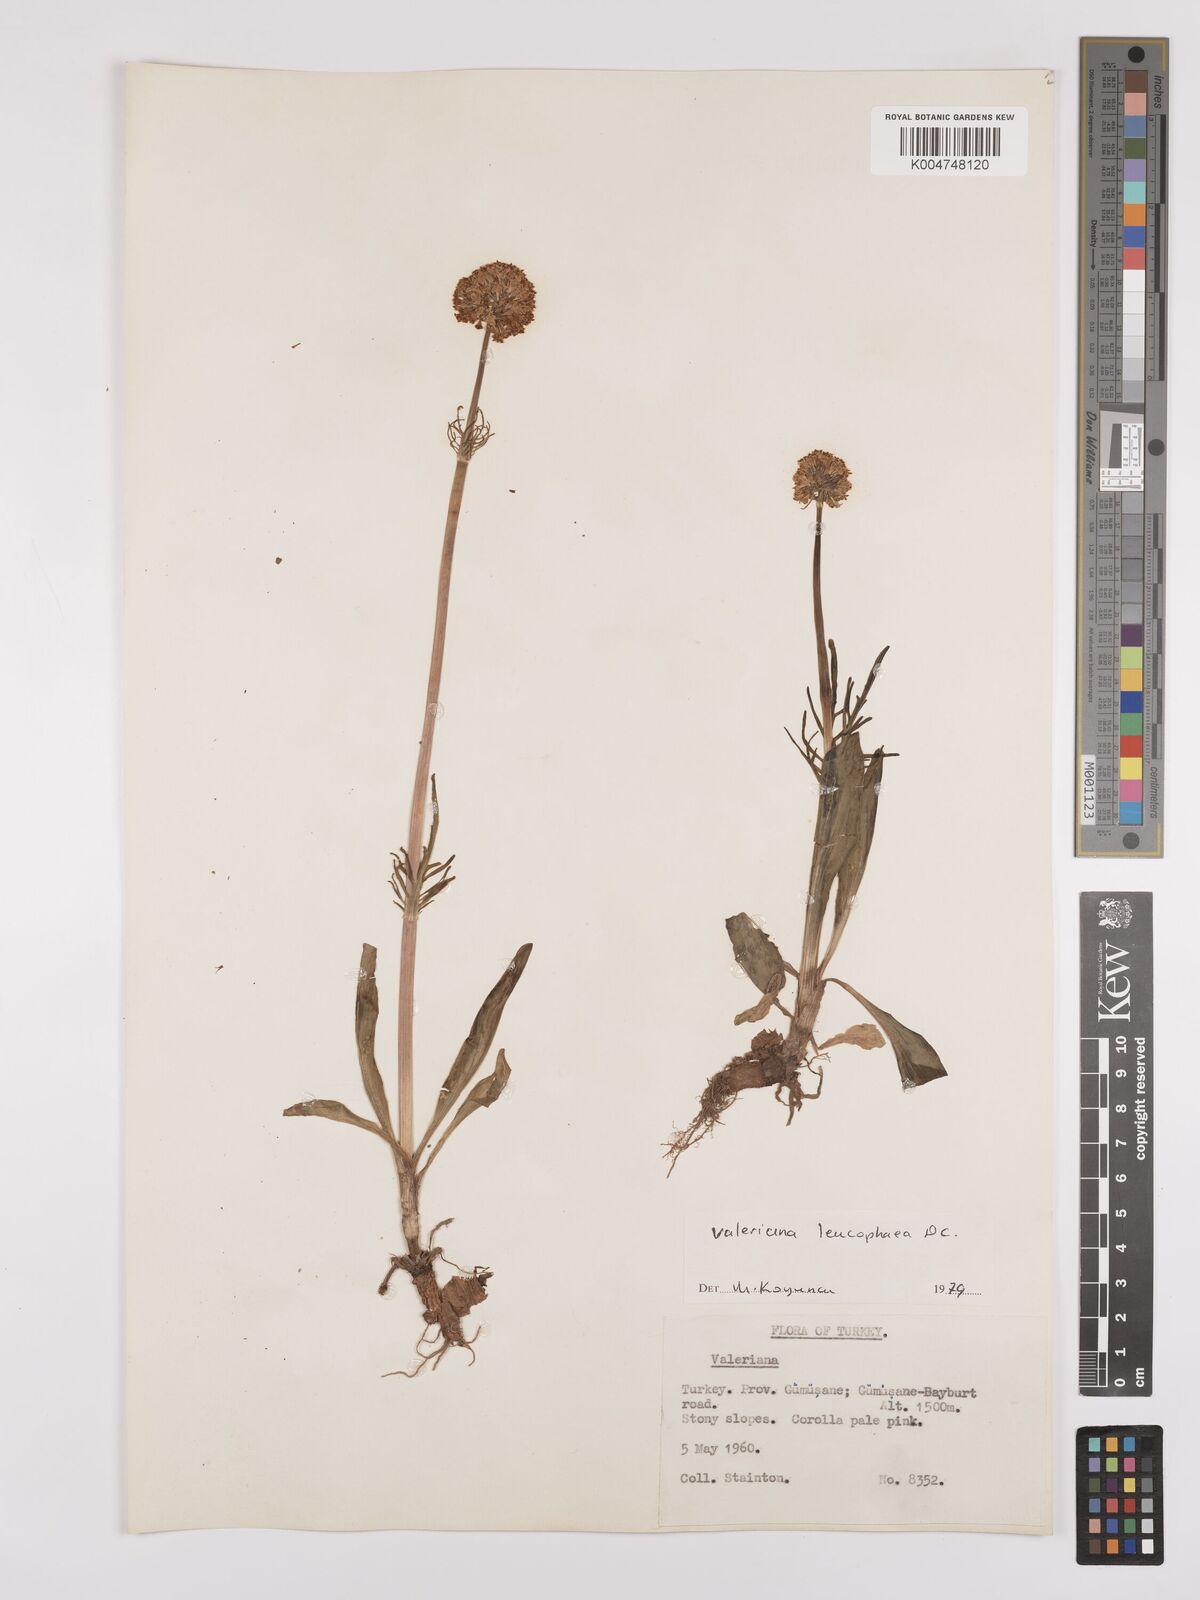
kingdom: Plantae
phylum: Tracheophyta
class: Magnoliopsida
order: Dipsacales
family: Caprifoliaceae
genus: Valeriana
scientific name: Valeriana
